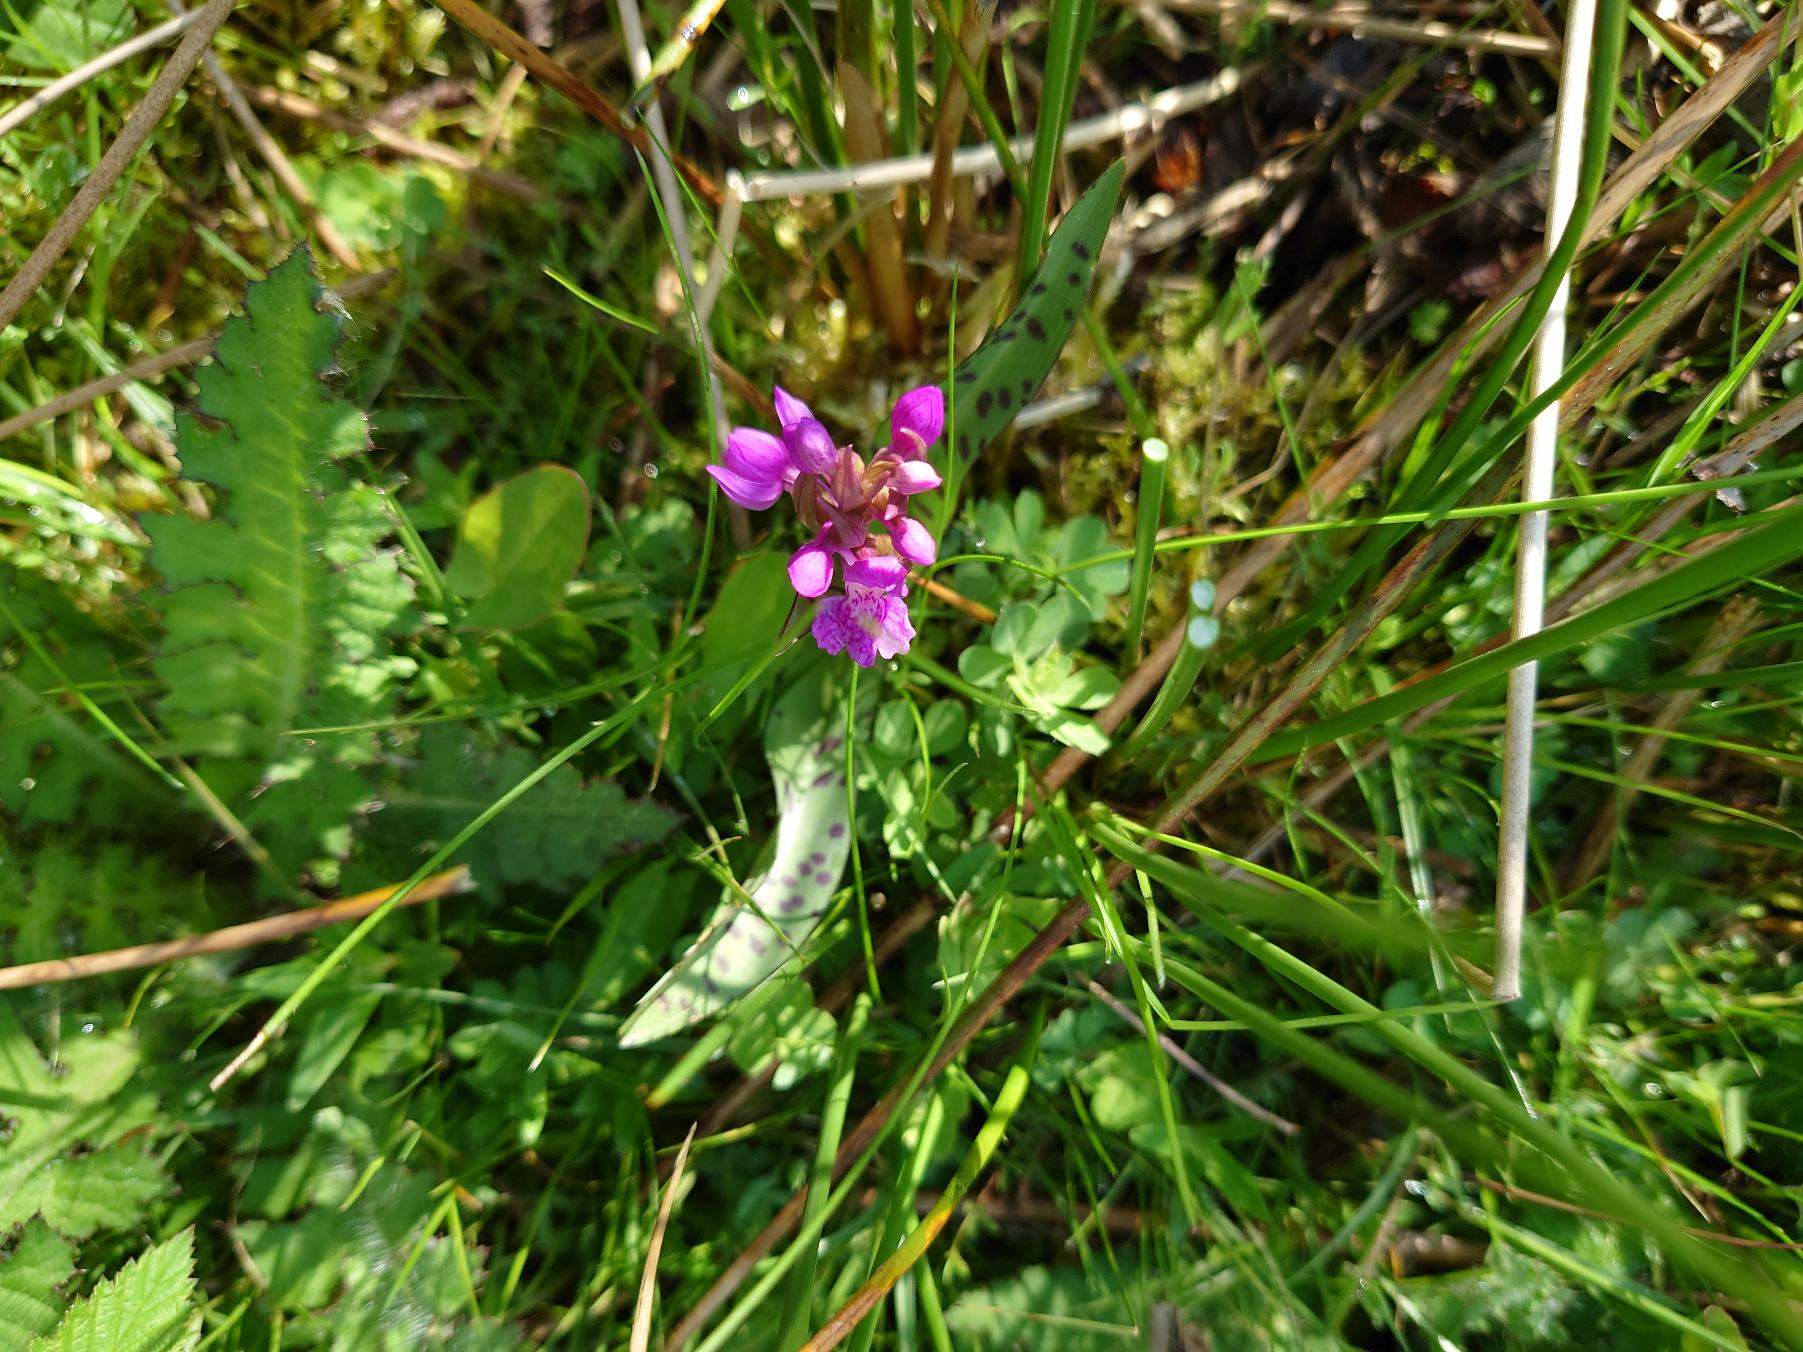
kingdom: Plantae
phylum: Tracheophyta
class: Liliopsida
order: Asparagales
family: Orchidaceae
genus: Dactylorhiza
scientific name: Dactylorhiza majalis
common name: Maj-gøgeurt
